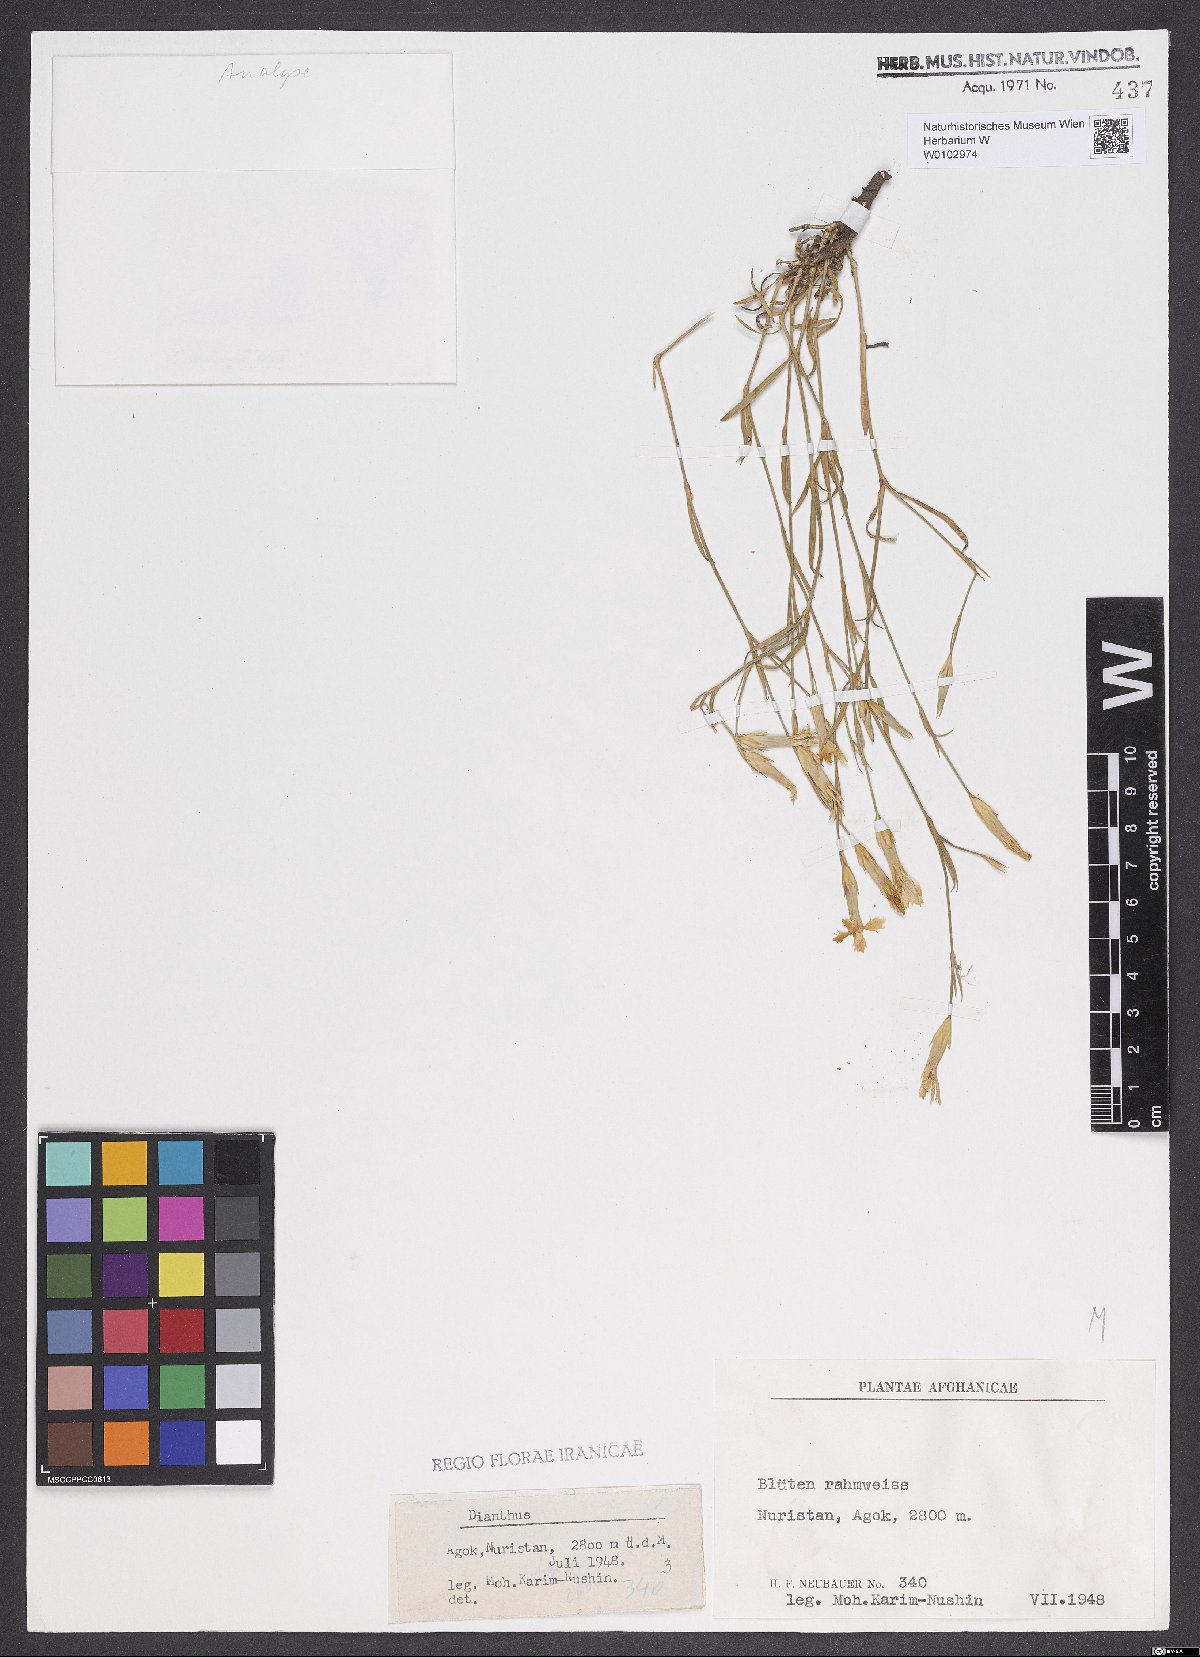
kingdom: Plantae
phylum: Tracheophyta
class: Magnoliopsida
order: Caryophyllales
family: Caryophyllaceae
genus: Dianthus
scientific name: Dianthus afghanicus
